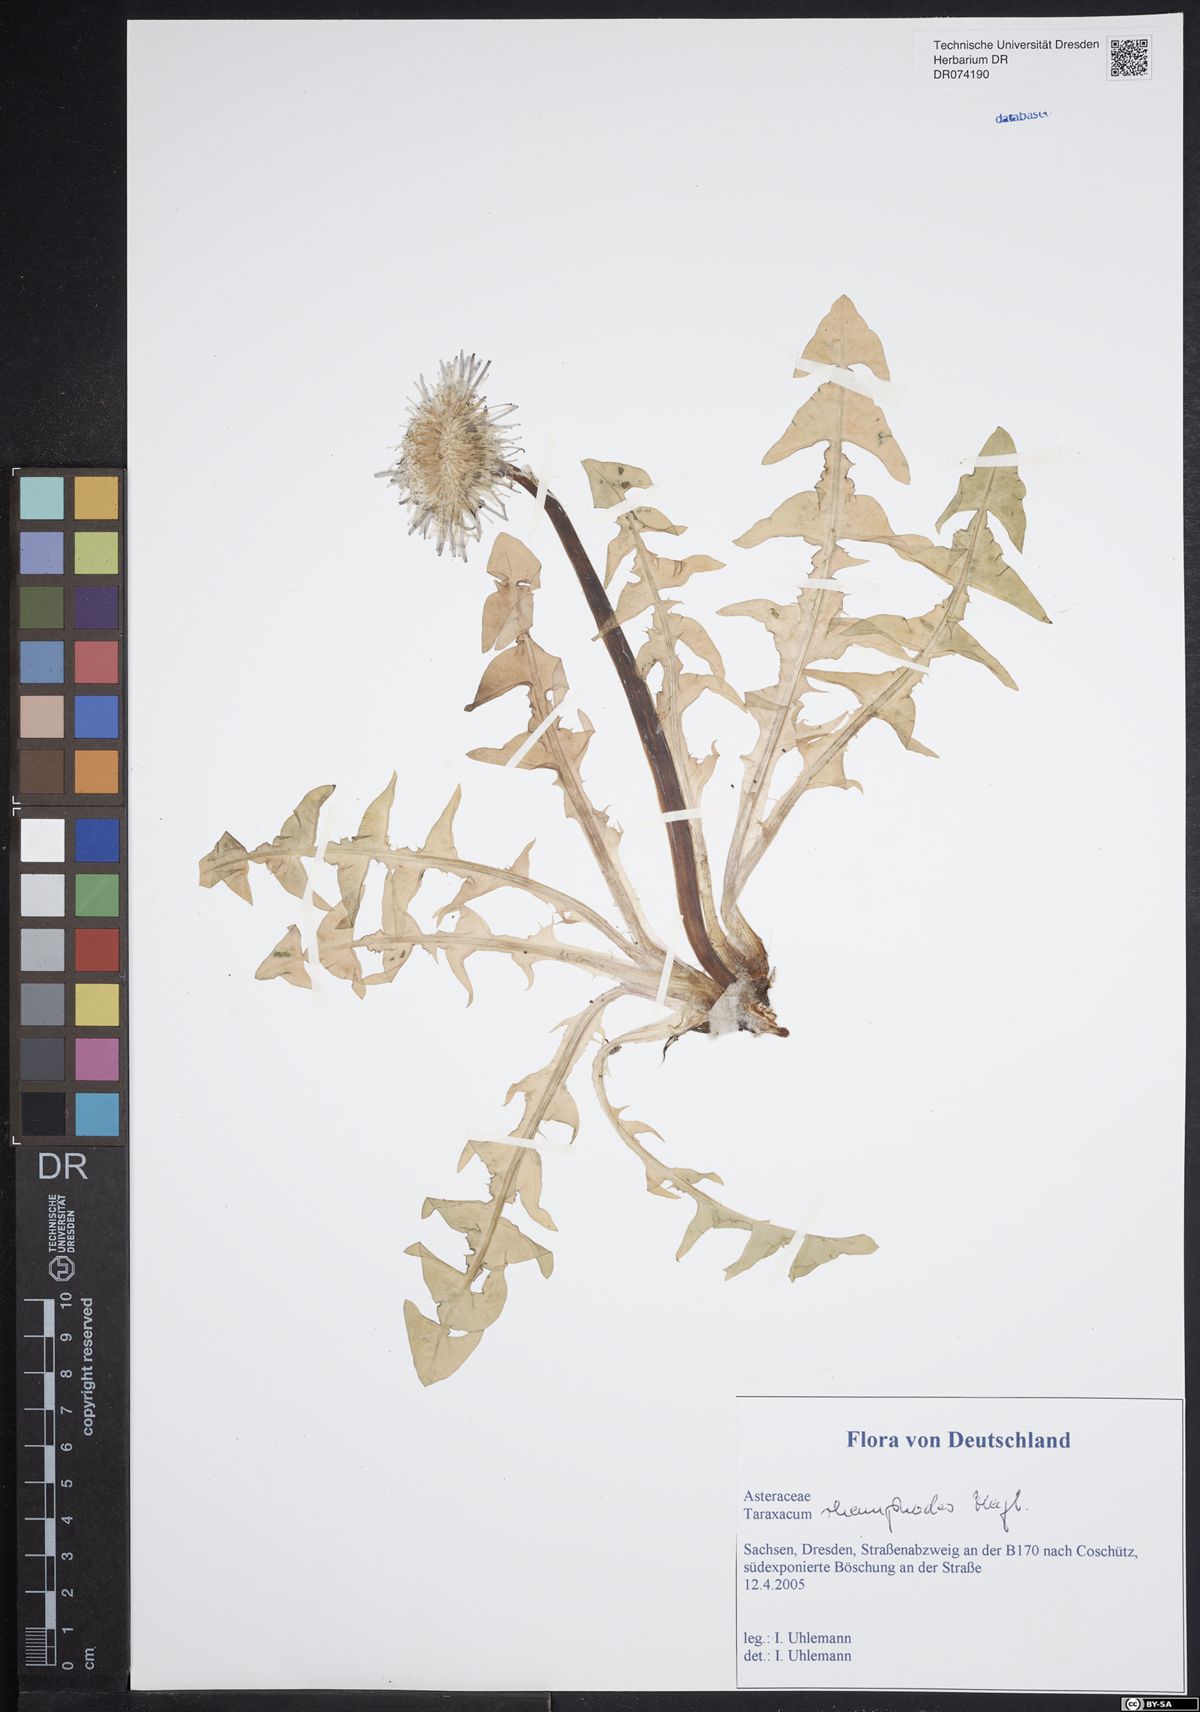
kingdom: Plantae
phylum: Tracheophyta
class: Magnoliopsida
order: Asterales
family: Asteraceae
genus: Taraxacum
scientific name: Taraxacum rhamphodes
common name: Robust dandelion
